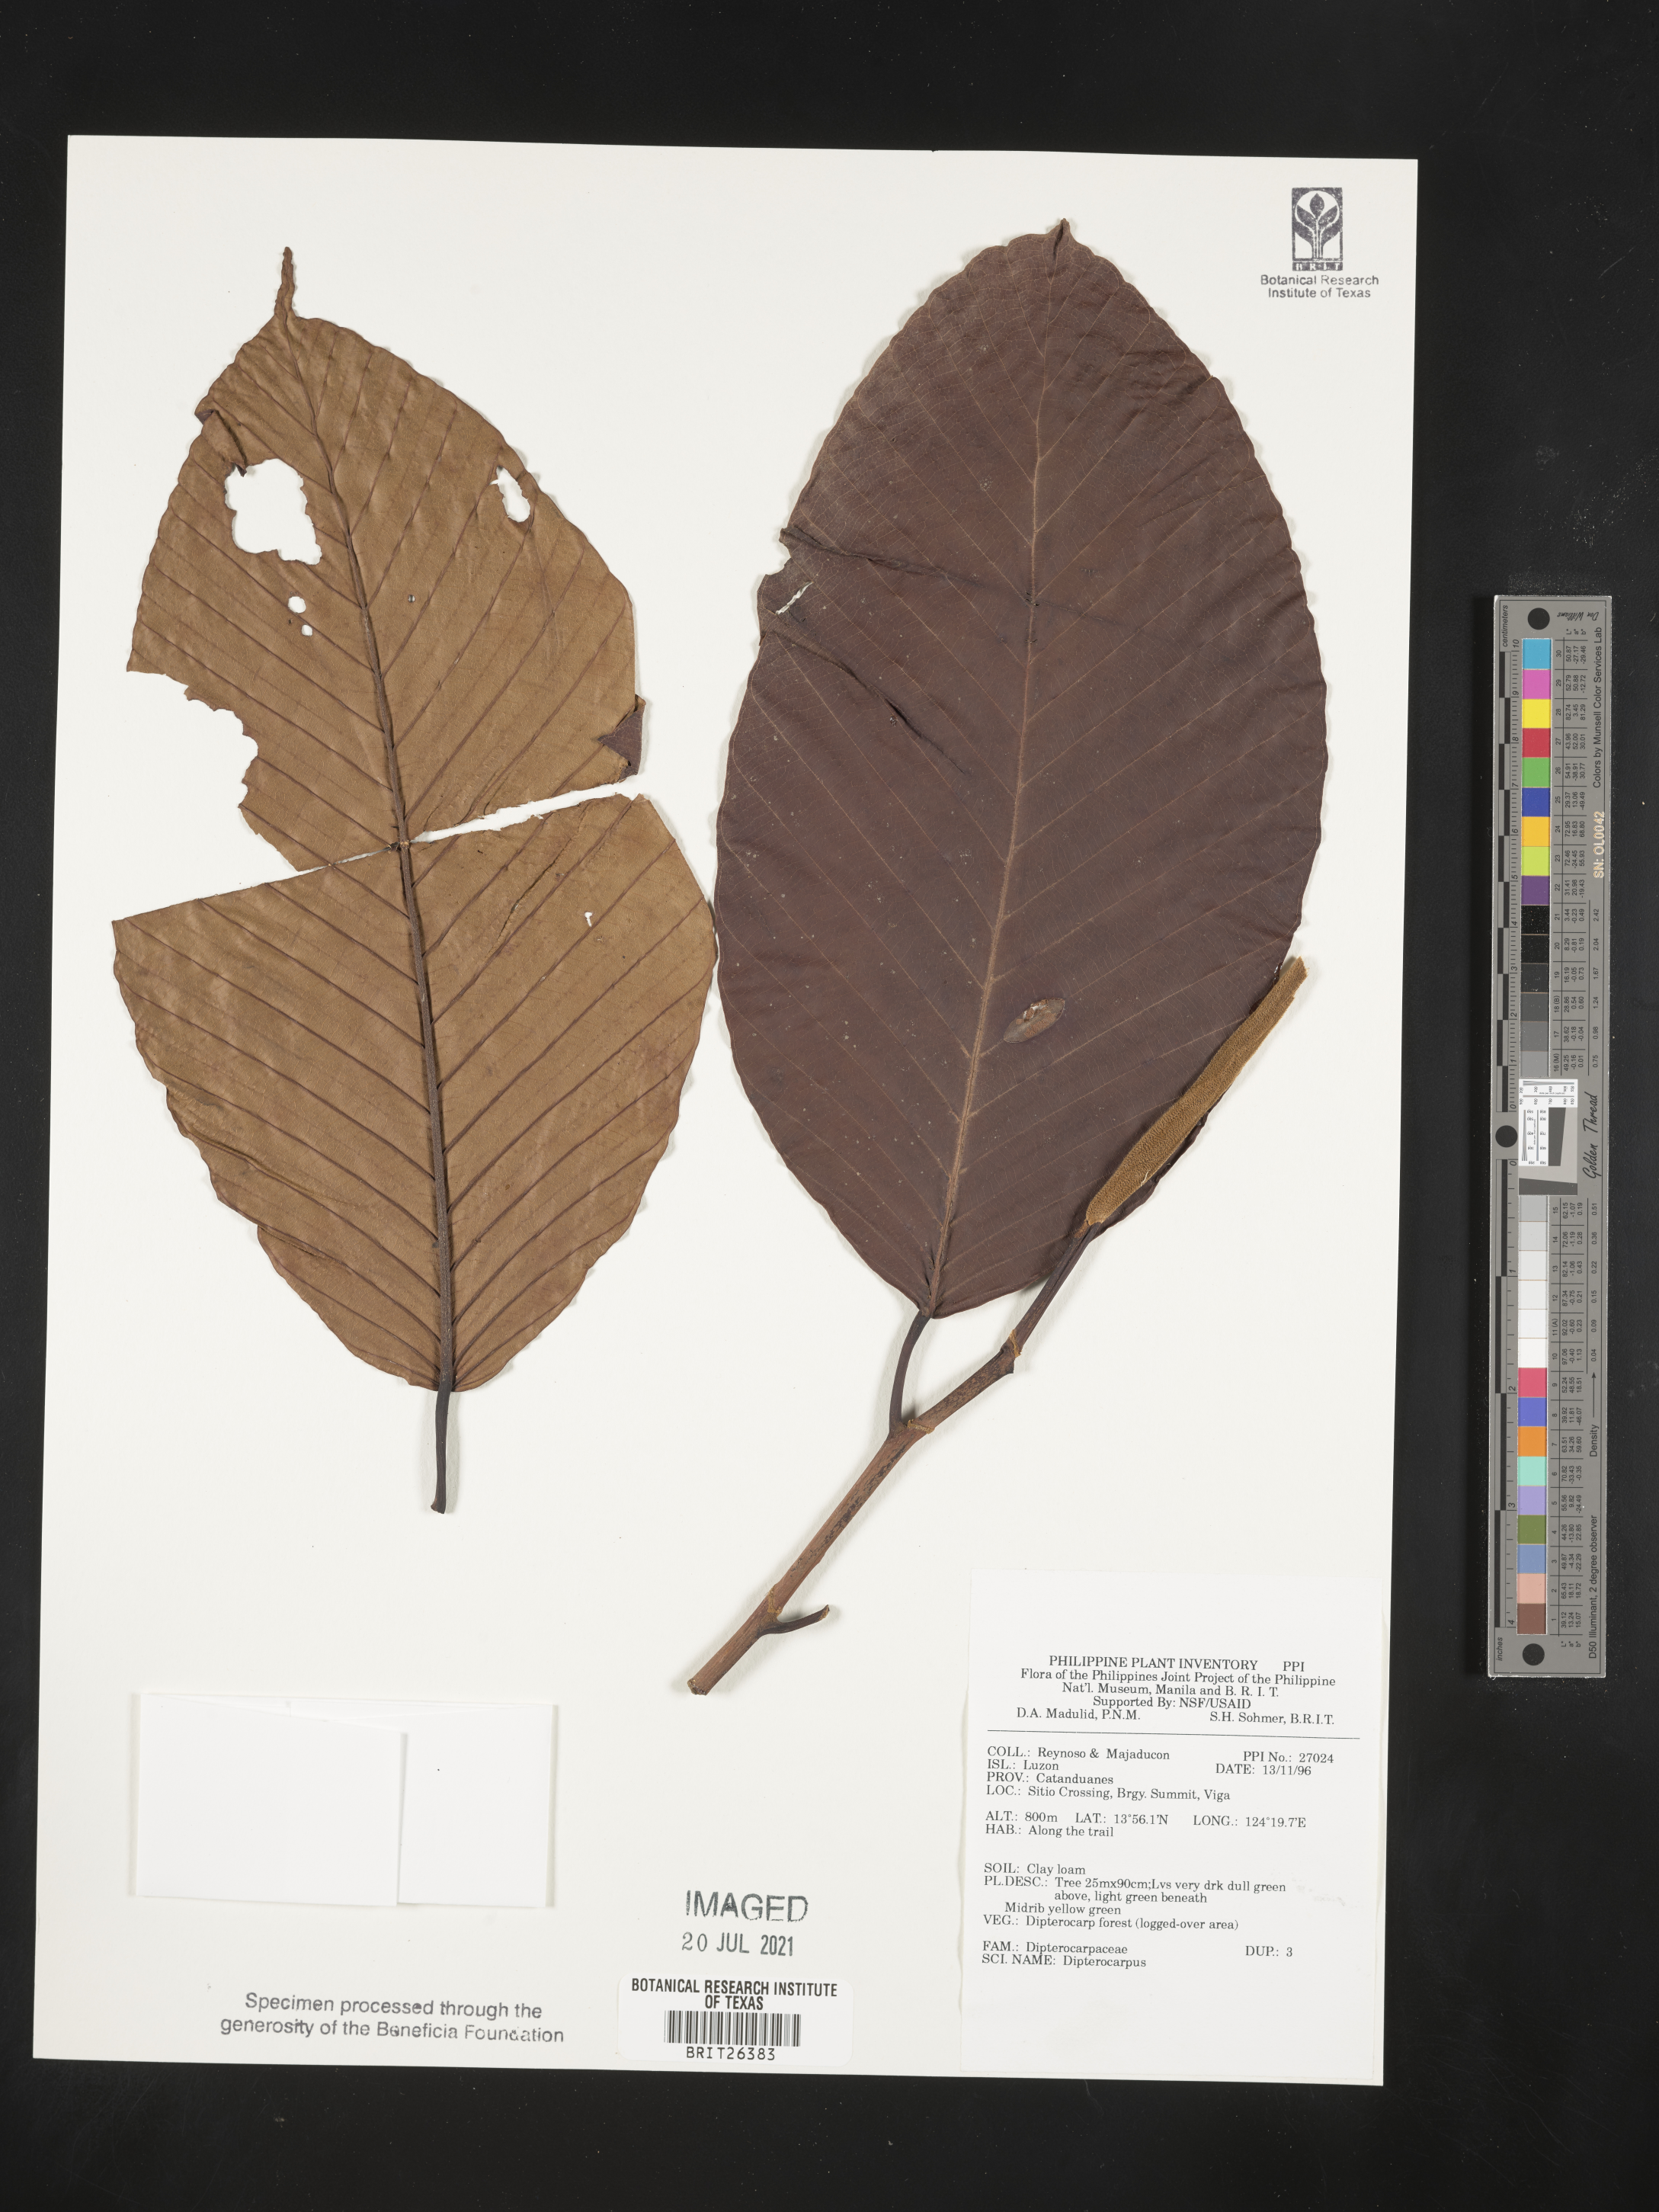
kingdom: Plantae
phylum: Tracheophyta
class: Magnoliopsida
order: Malvales
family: Dipterocarpaceae
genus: Dipterocarpus
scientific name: Dipterocarpus
